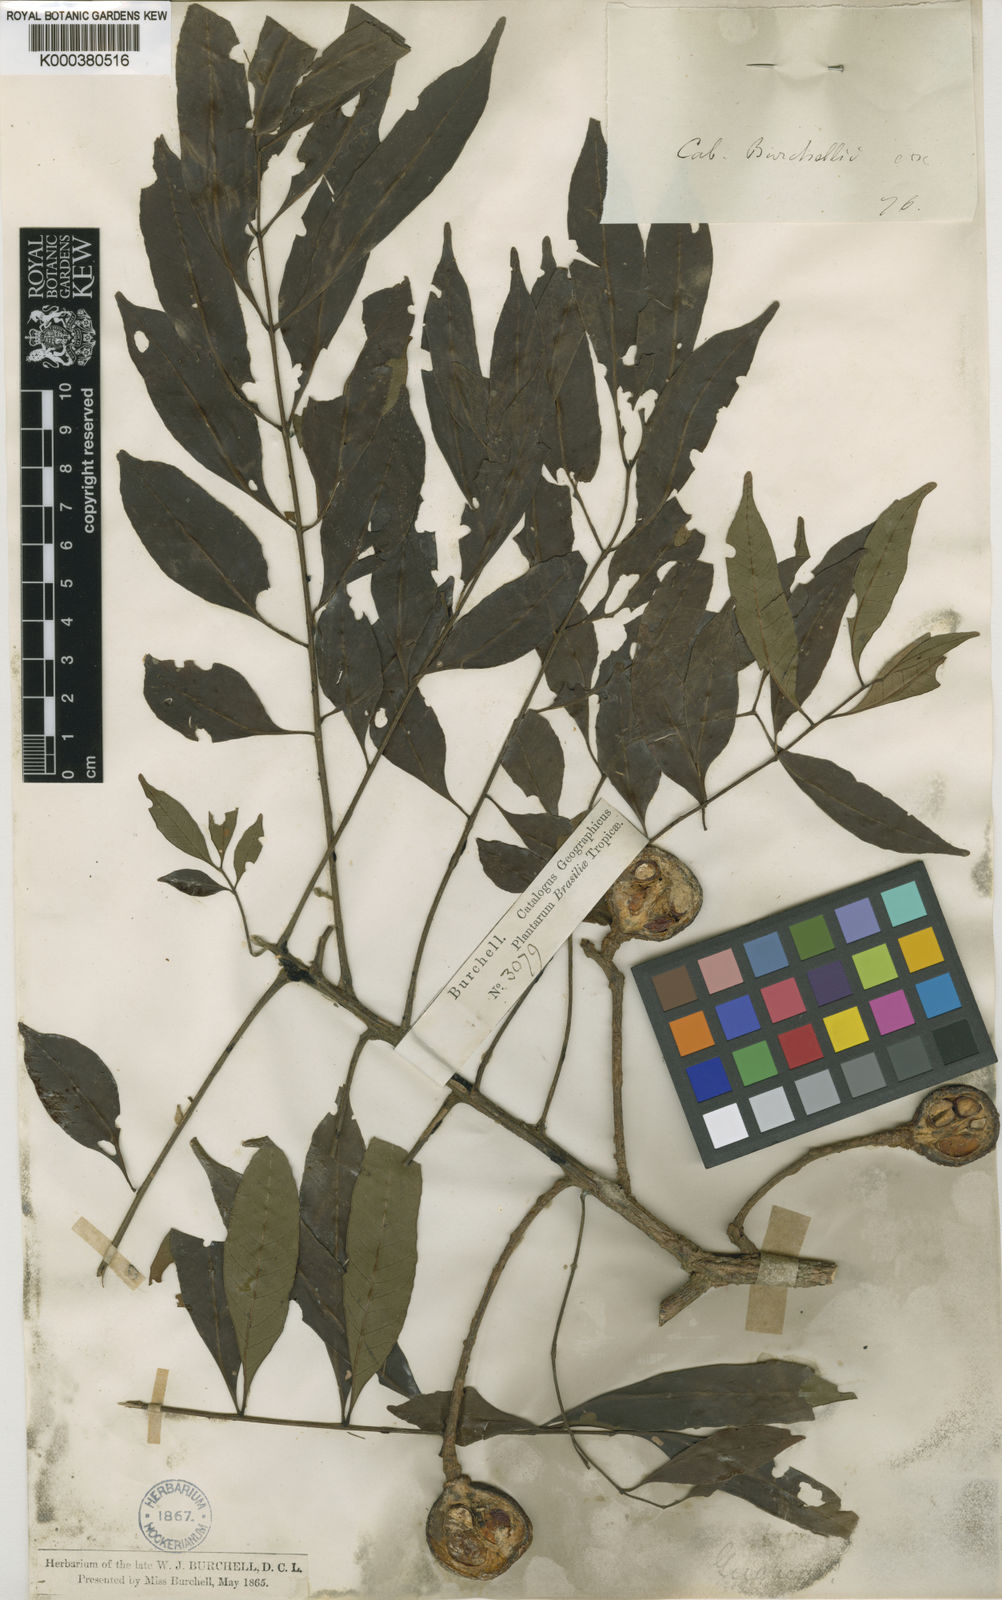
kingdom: Plantae
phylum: Tracheophyta
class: Magnoliopsida
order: Sapindales
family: Meliaceae
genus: Cabralea
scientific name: Cabralea canjerana
